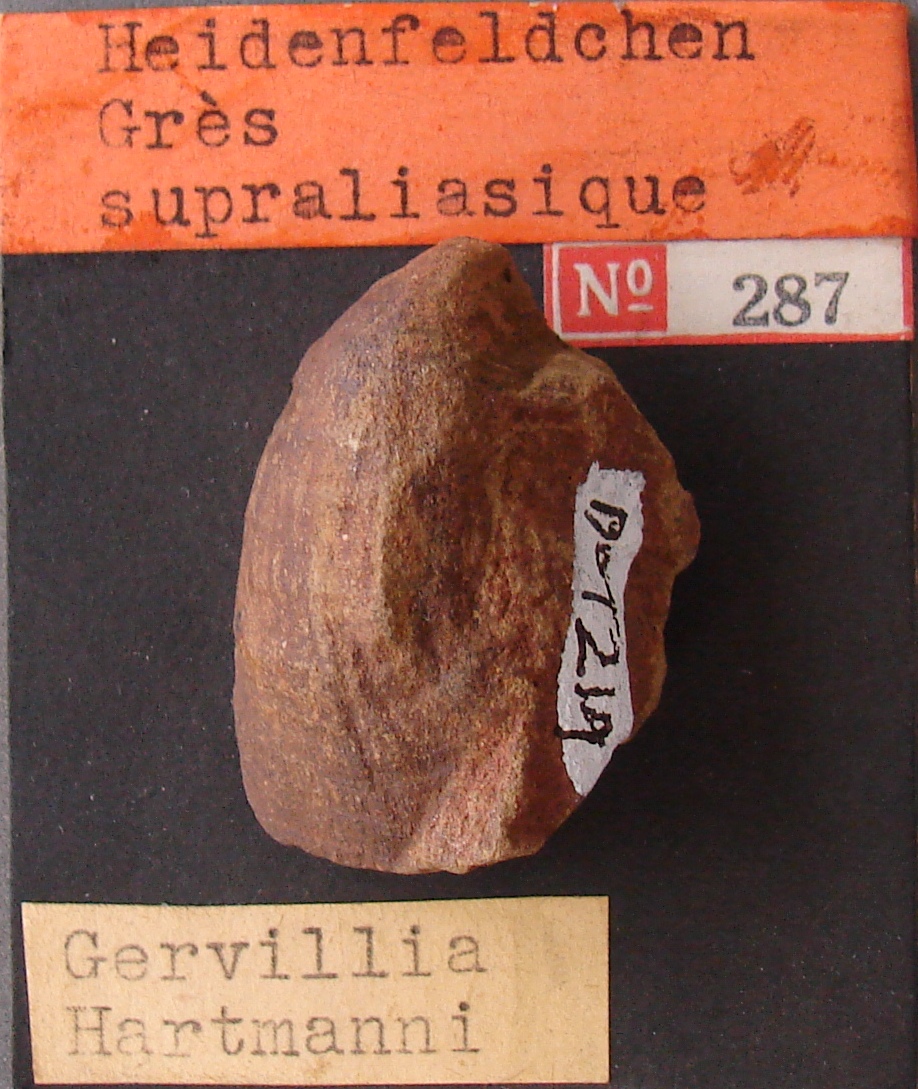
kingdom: Animalia
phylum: Mollusca
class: Bivalvia
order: Ostreida
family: Bakevelliidae
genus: Gervillia
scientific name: Gervillia hartmanni
